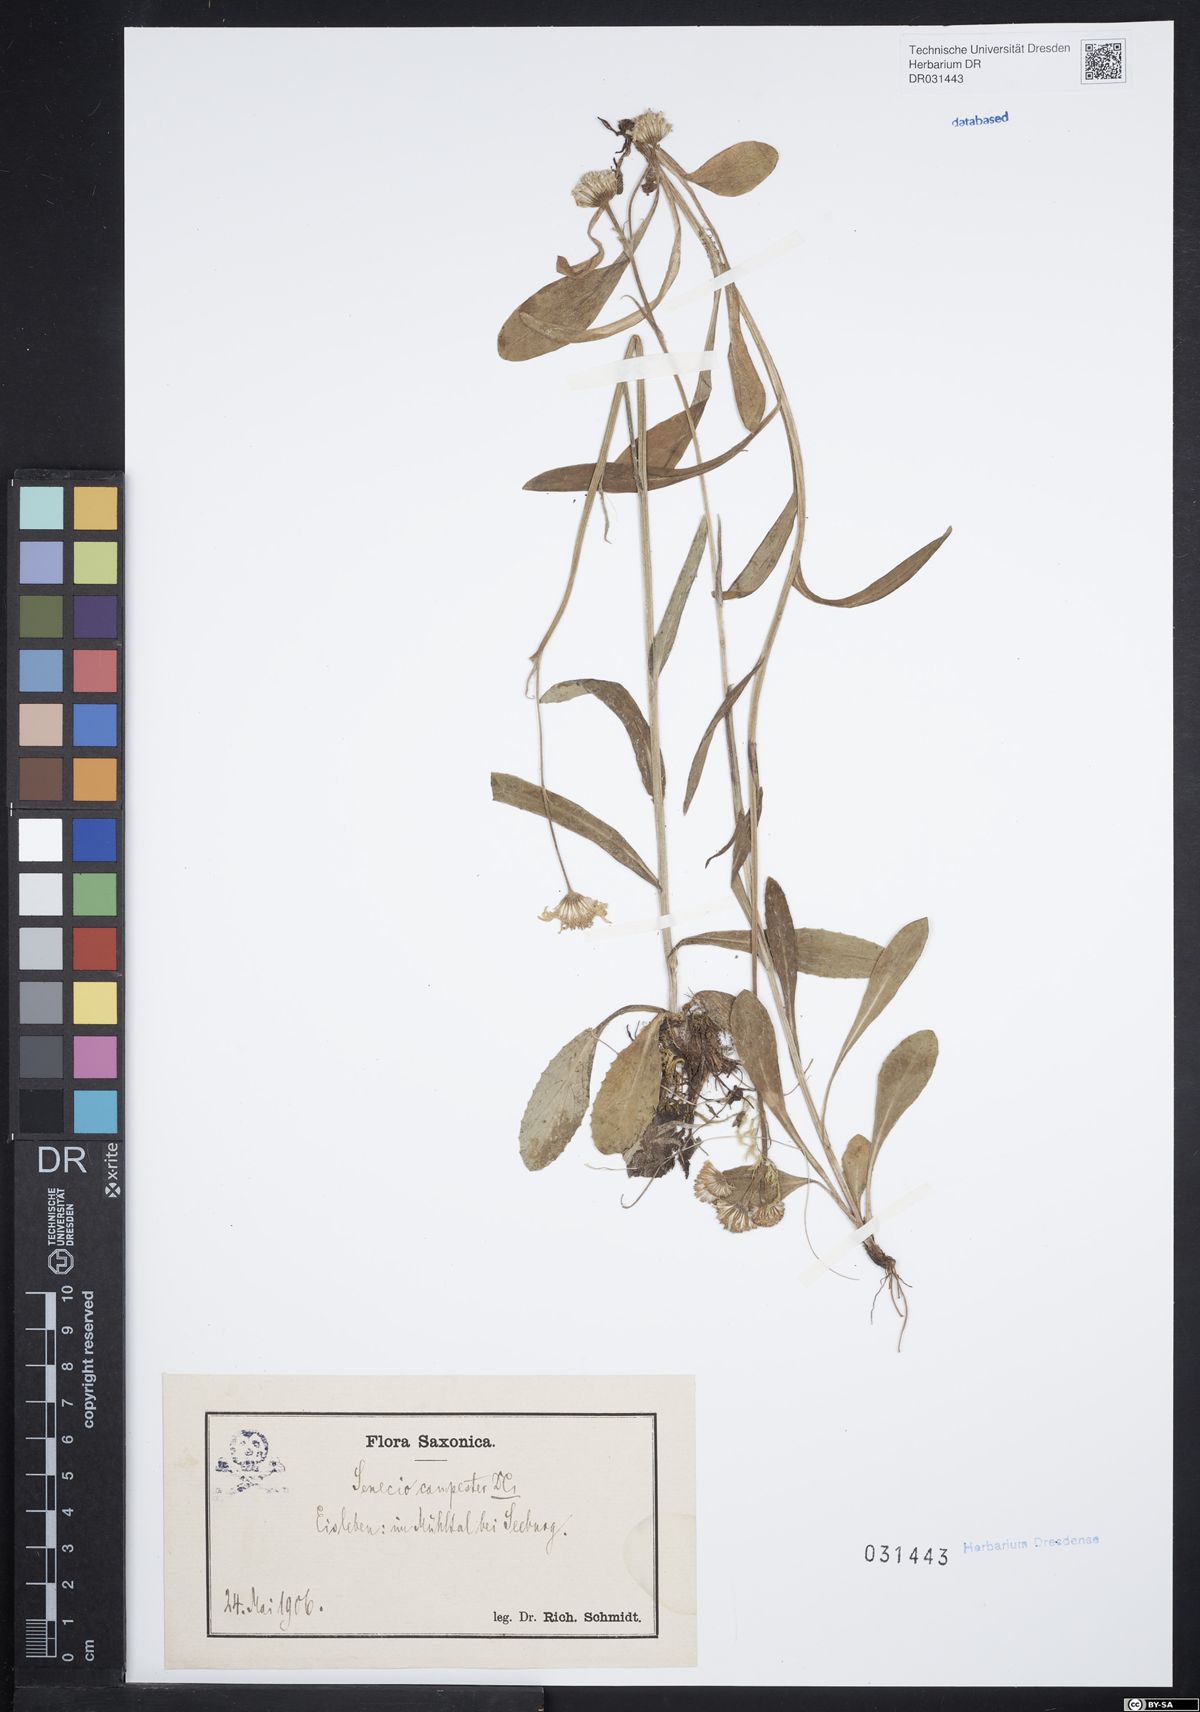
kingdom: Plantae
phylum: Tracheophyta
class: Magnoliopsida
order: Asterales
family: Asteraceae
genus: Tephroseris
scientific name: Tephroseris integrifolia
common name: Field fleawort
